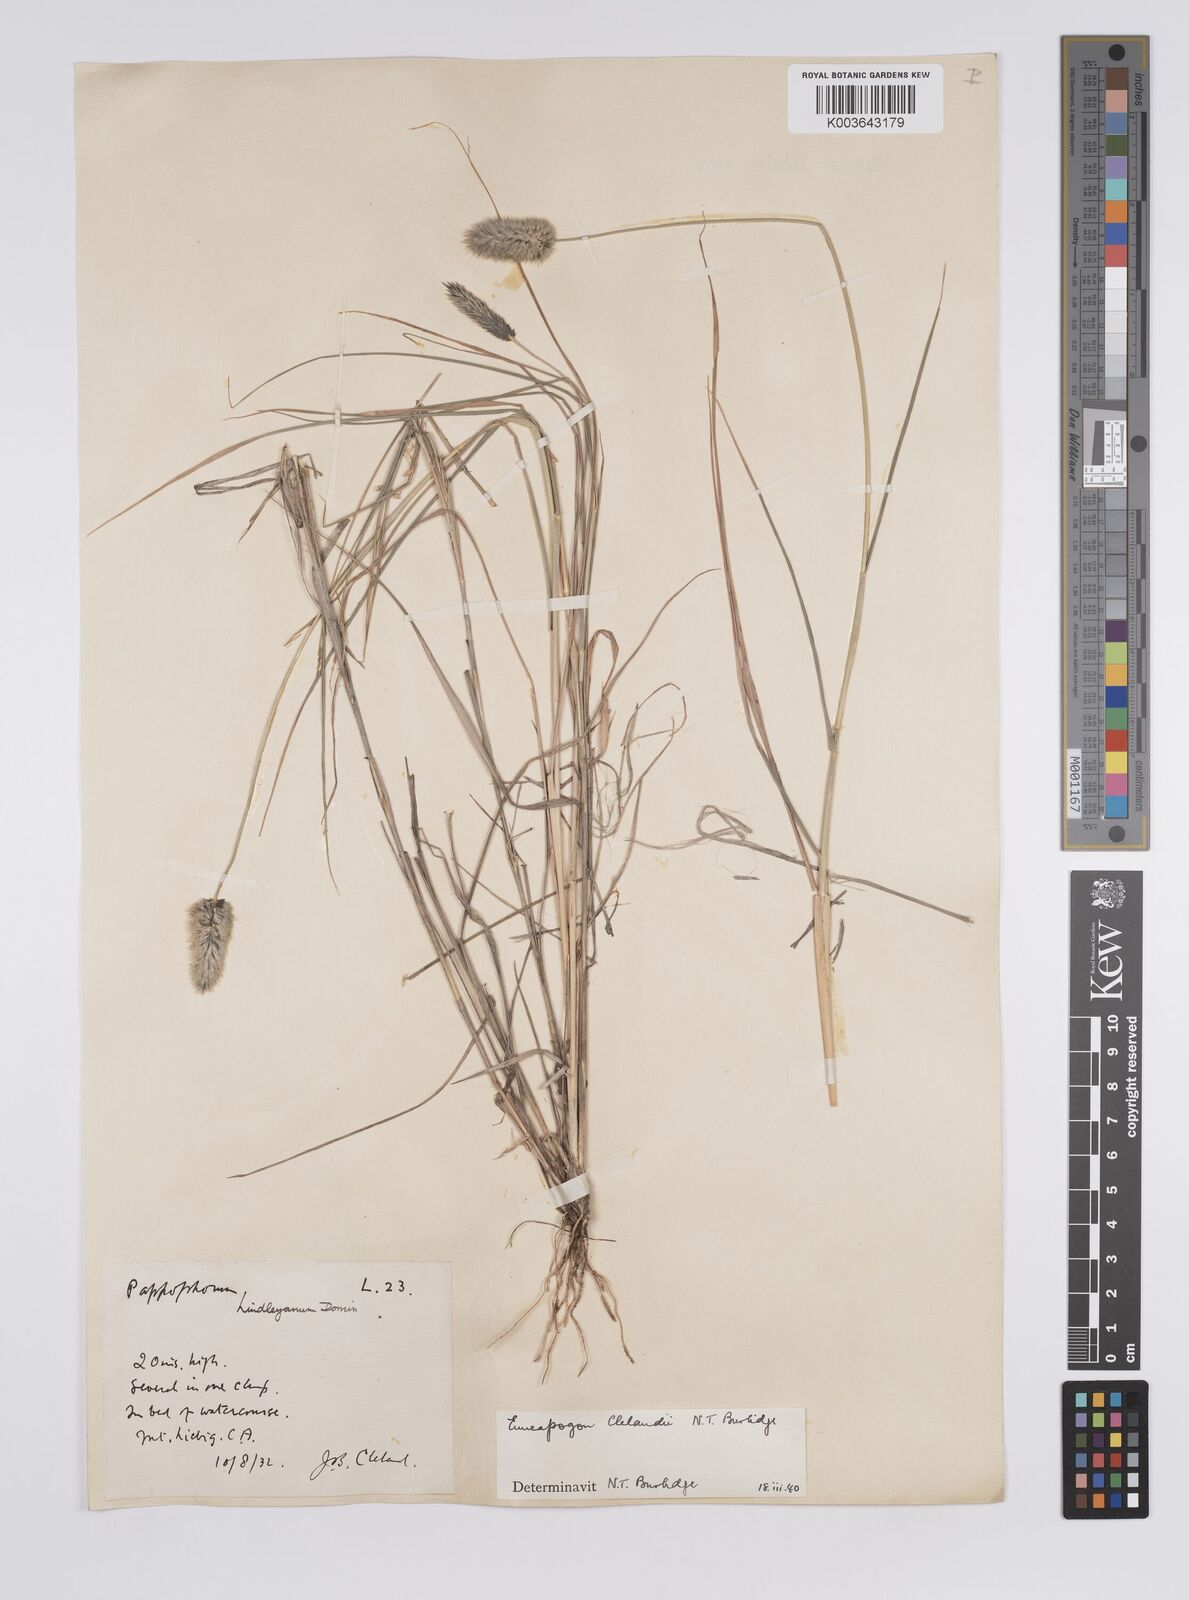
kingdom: Plantae
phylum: Tracheophyta
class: Liliopsida
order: Poales
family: Poaceae
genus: Enneapogon
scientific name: Enneapogon robustissimus
